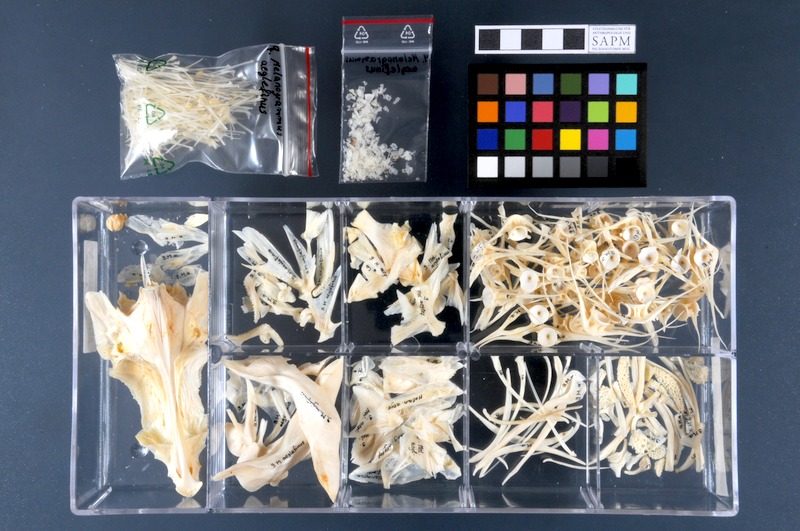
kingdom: Animalia
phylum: Chordata
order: Gadiformes
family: Gadidae
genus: Melanogrammus
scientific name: Melanogrammus aeglefinus
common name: Haddock
